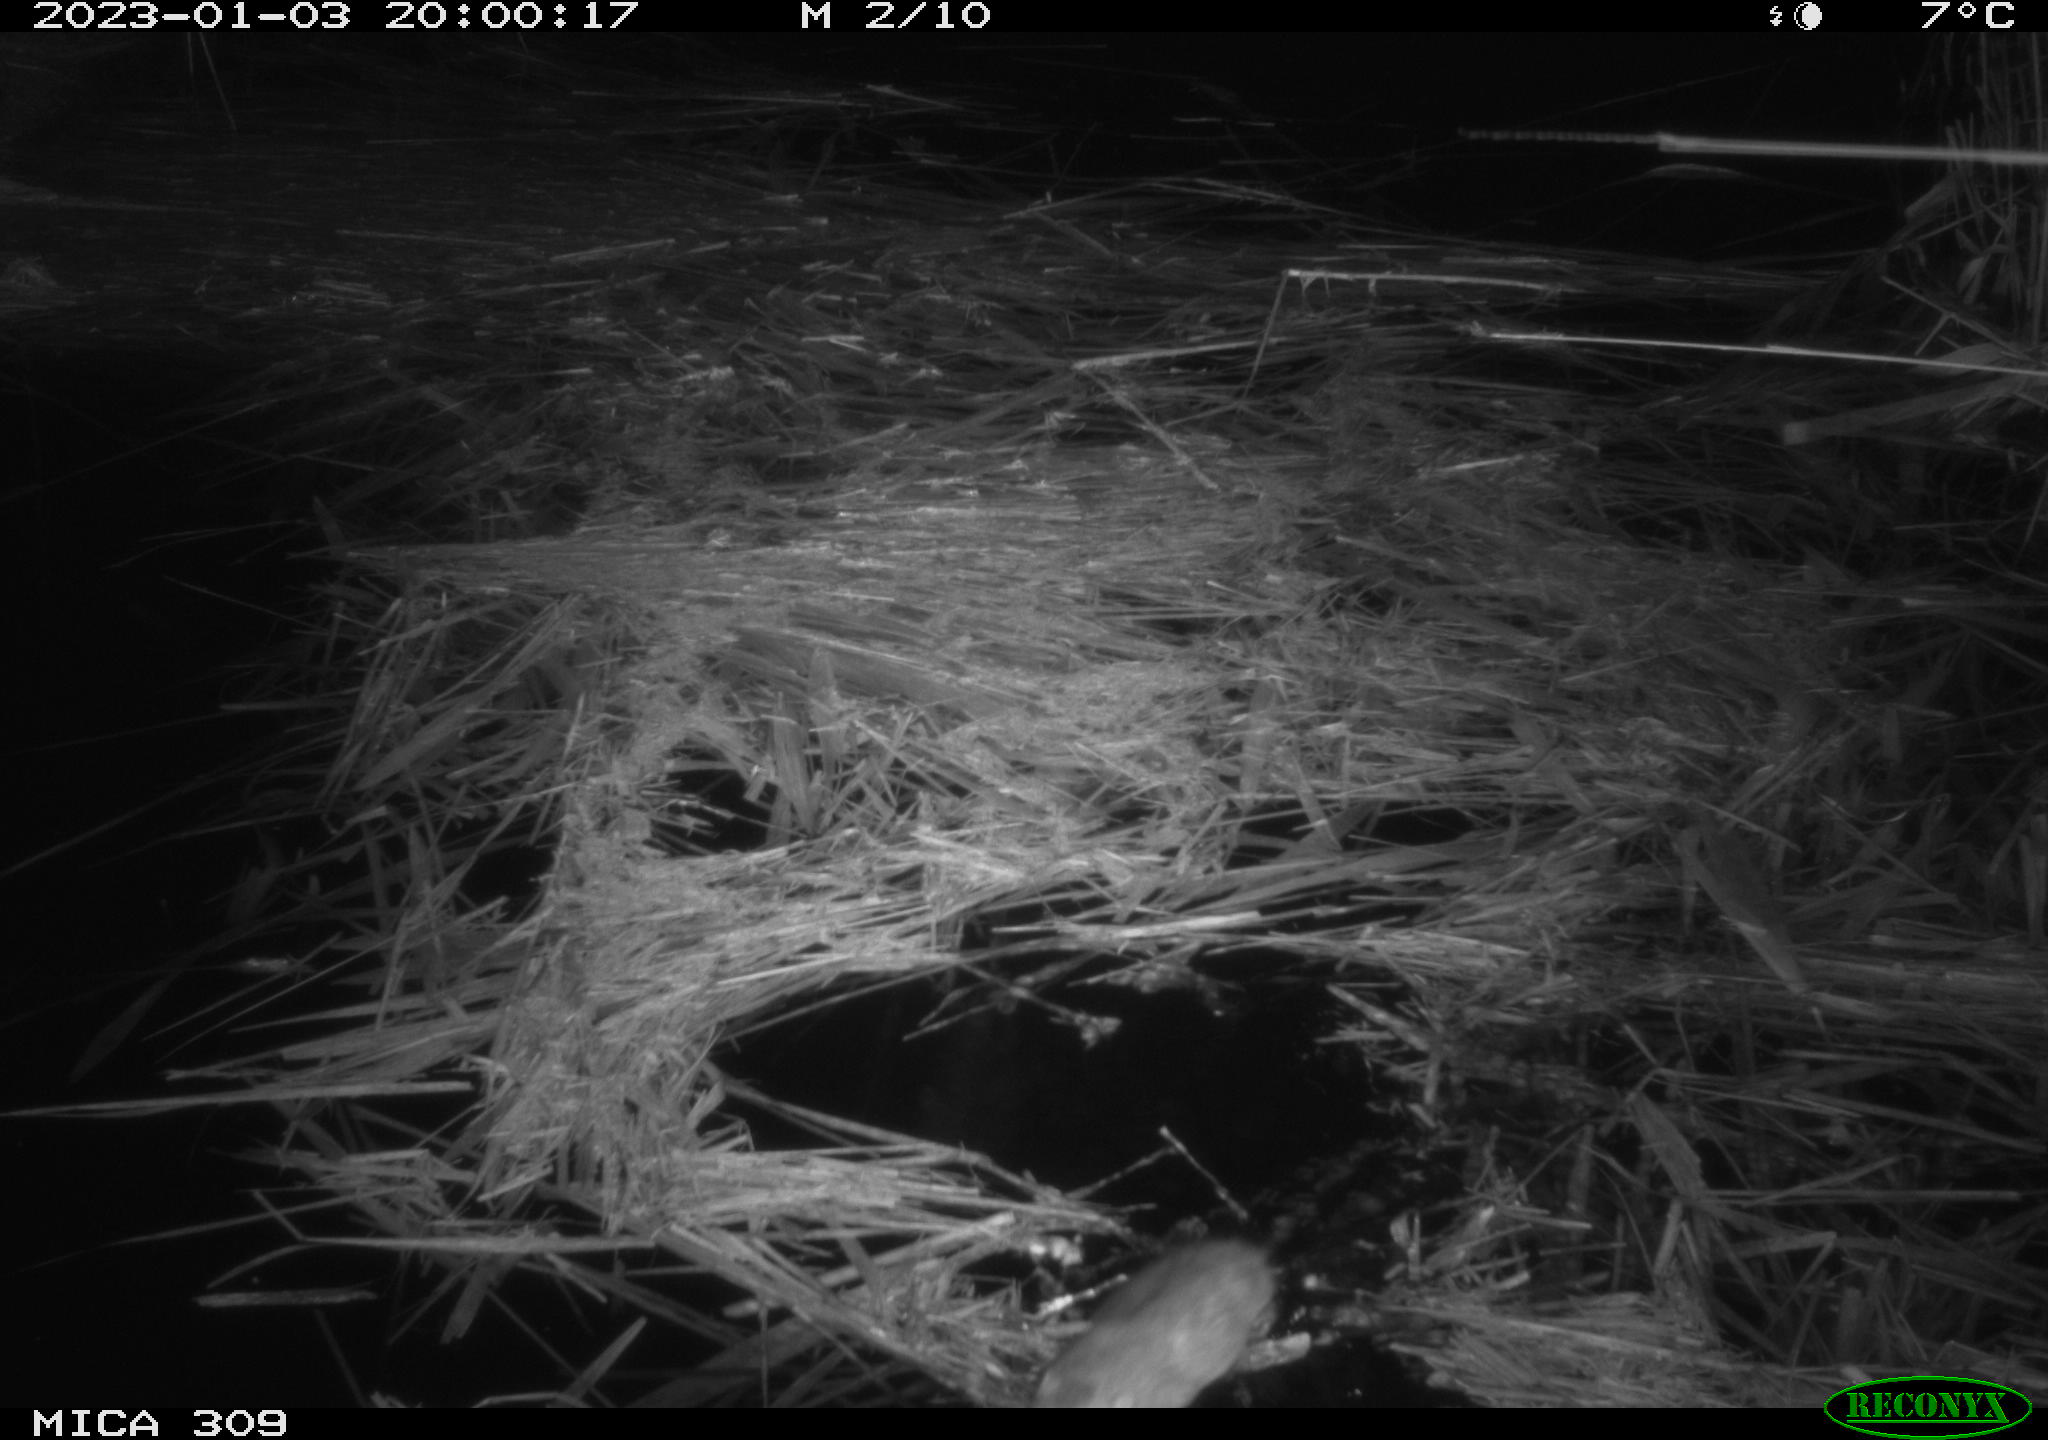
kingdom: Animalia
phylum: Chordata
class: Mammalia
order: Rodentia
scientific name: Rodentia
